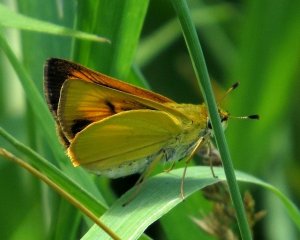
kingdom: Animalia
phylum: Arthropoda
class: Insecta
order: Lepidoptera
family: Hesperiidae
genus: Atrytone
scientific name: Atrytone delaware
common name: Delaware Skipper
